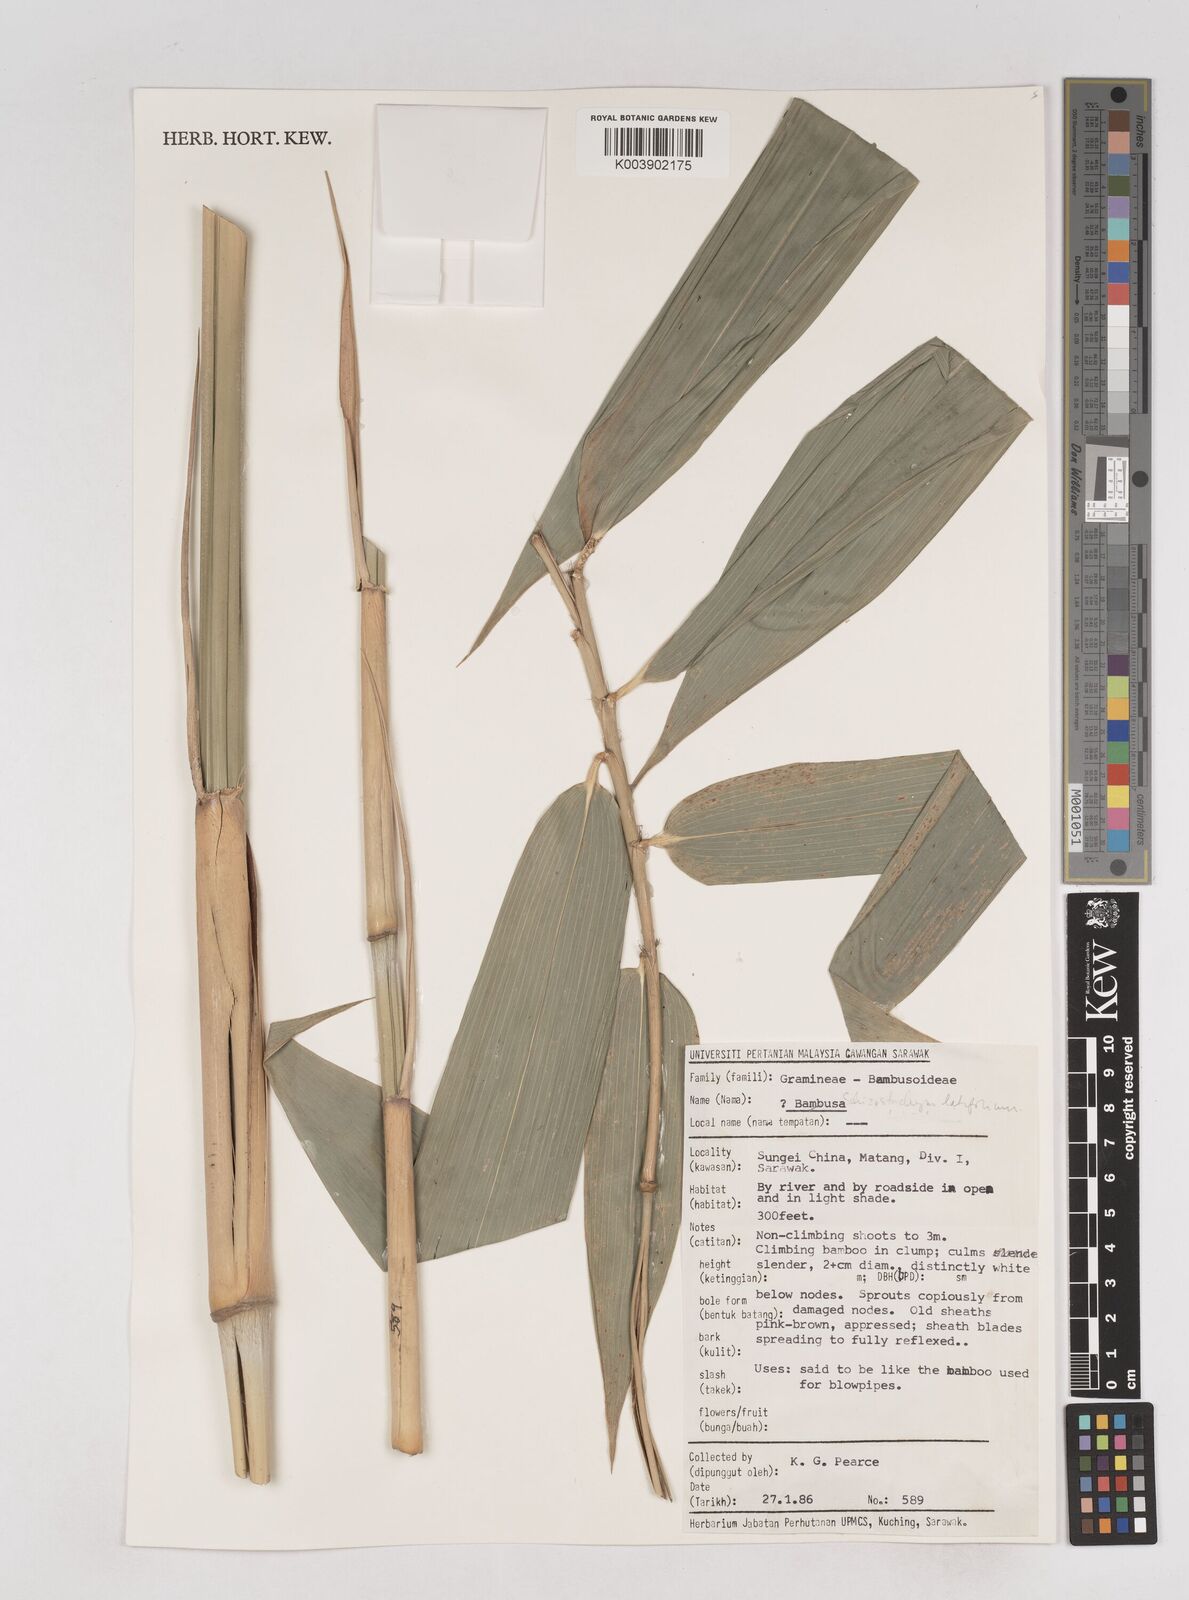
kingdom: Plantae
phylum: Tracheophyta
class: Liliopsida
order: Poales
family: Poaceae
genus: Schizostachyum
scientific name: Schizostachyum latifolium
